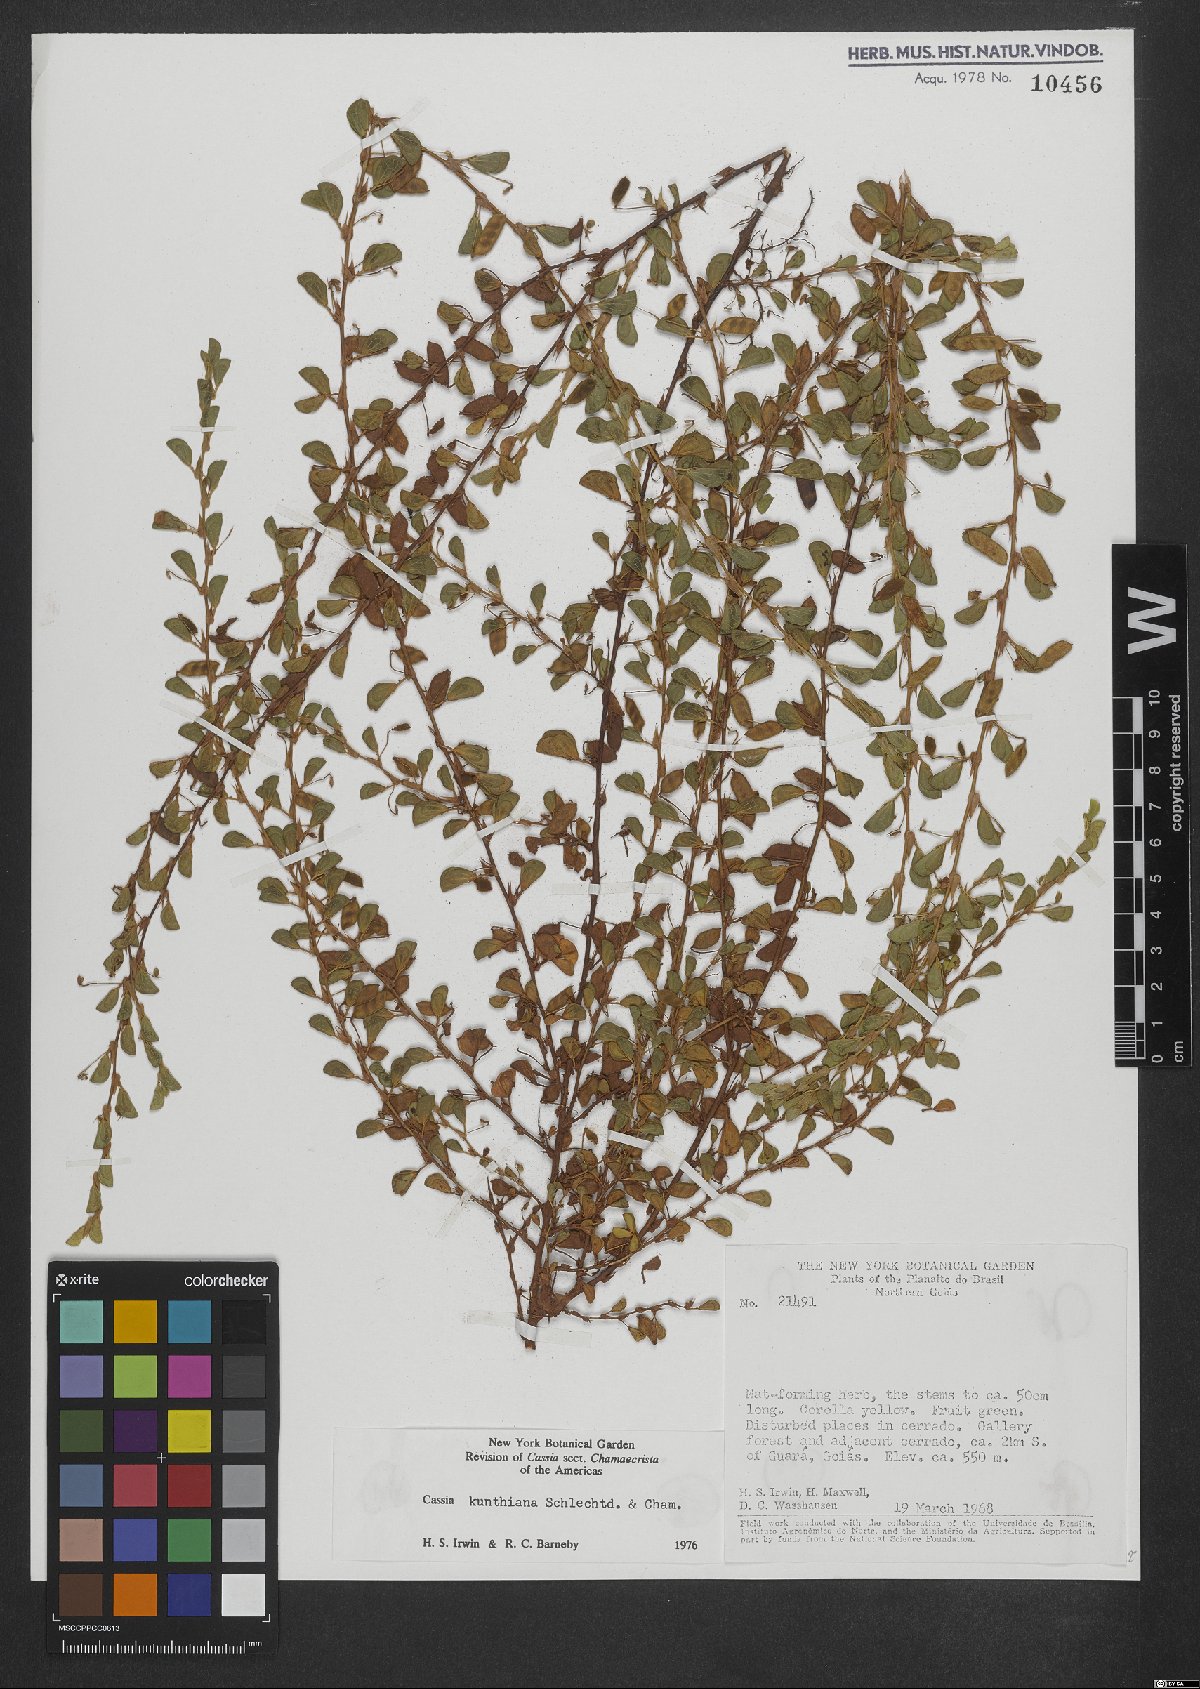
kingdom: Plantae
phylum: Tracheophyta
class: Magnoliopsida
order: Fabales
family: Fabaceae
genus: Chamaecrista
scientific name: Chamaecrista kunthiana
